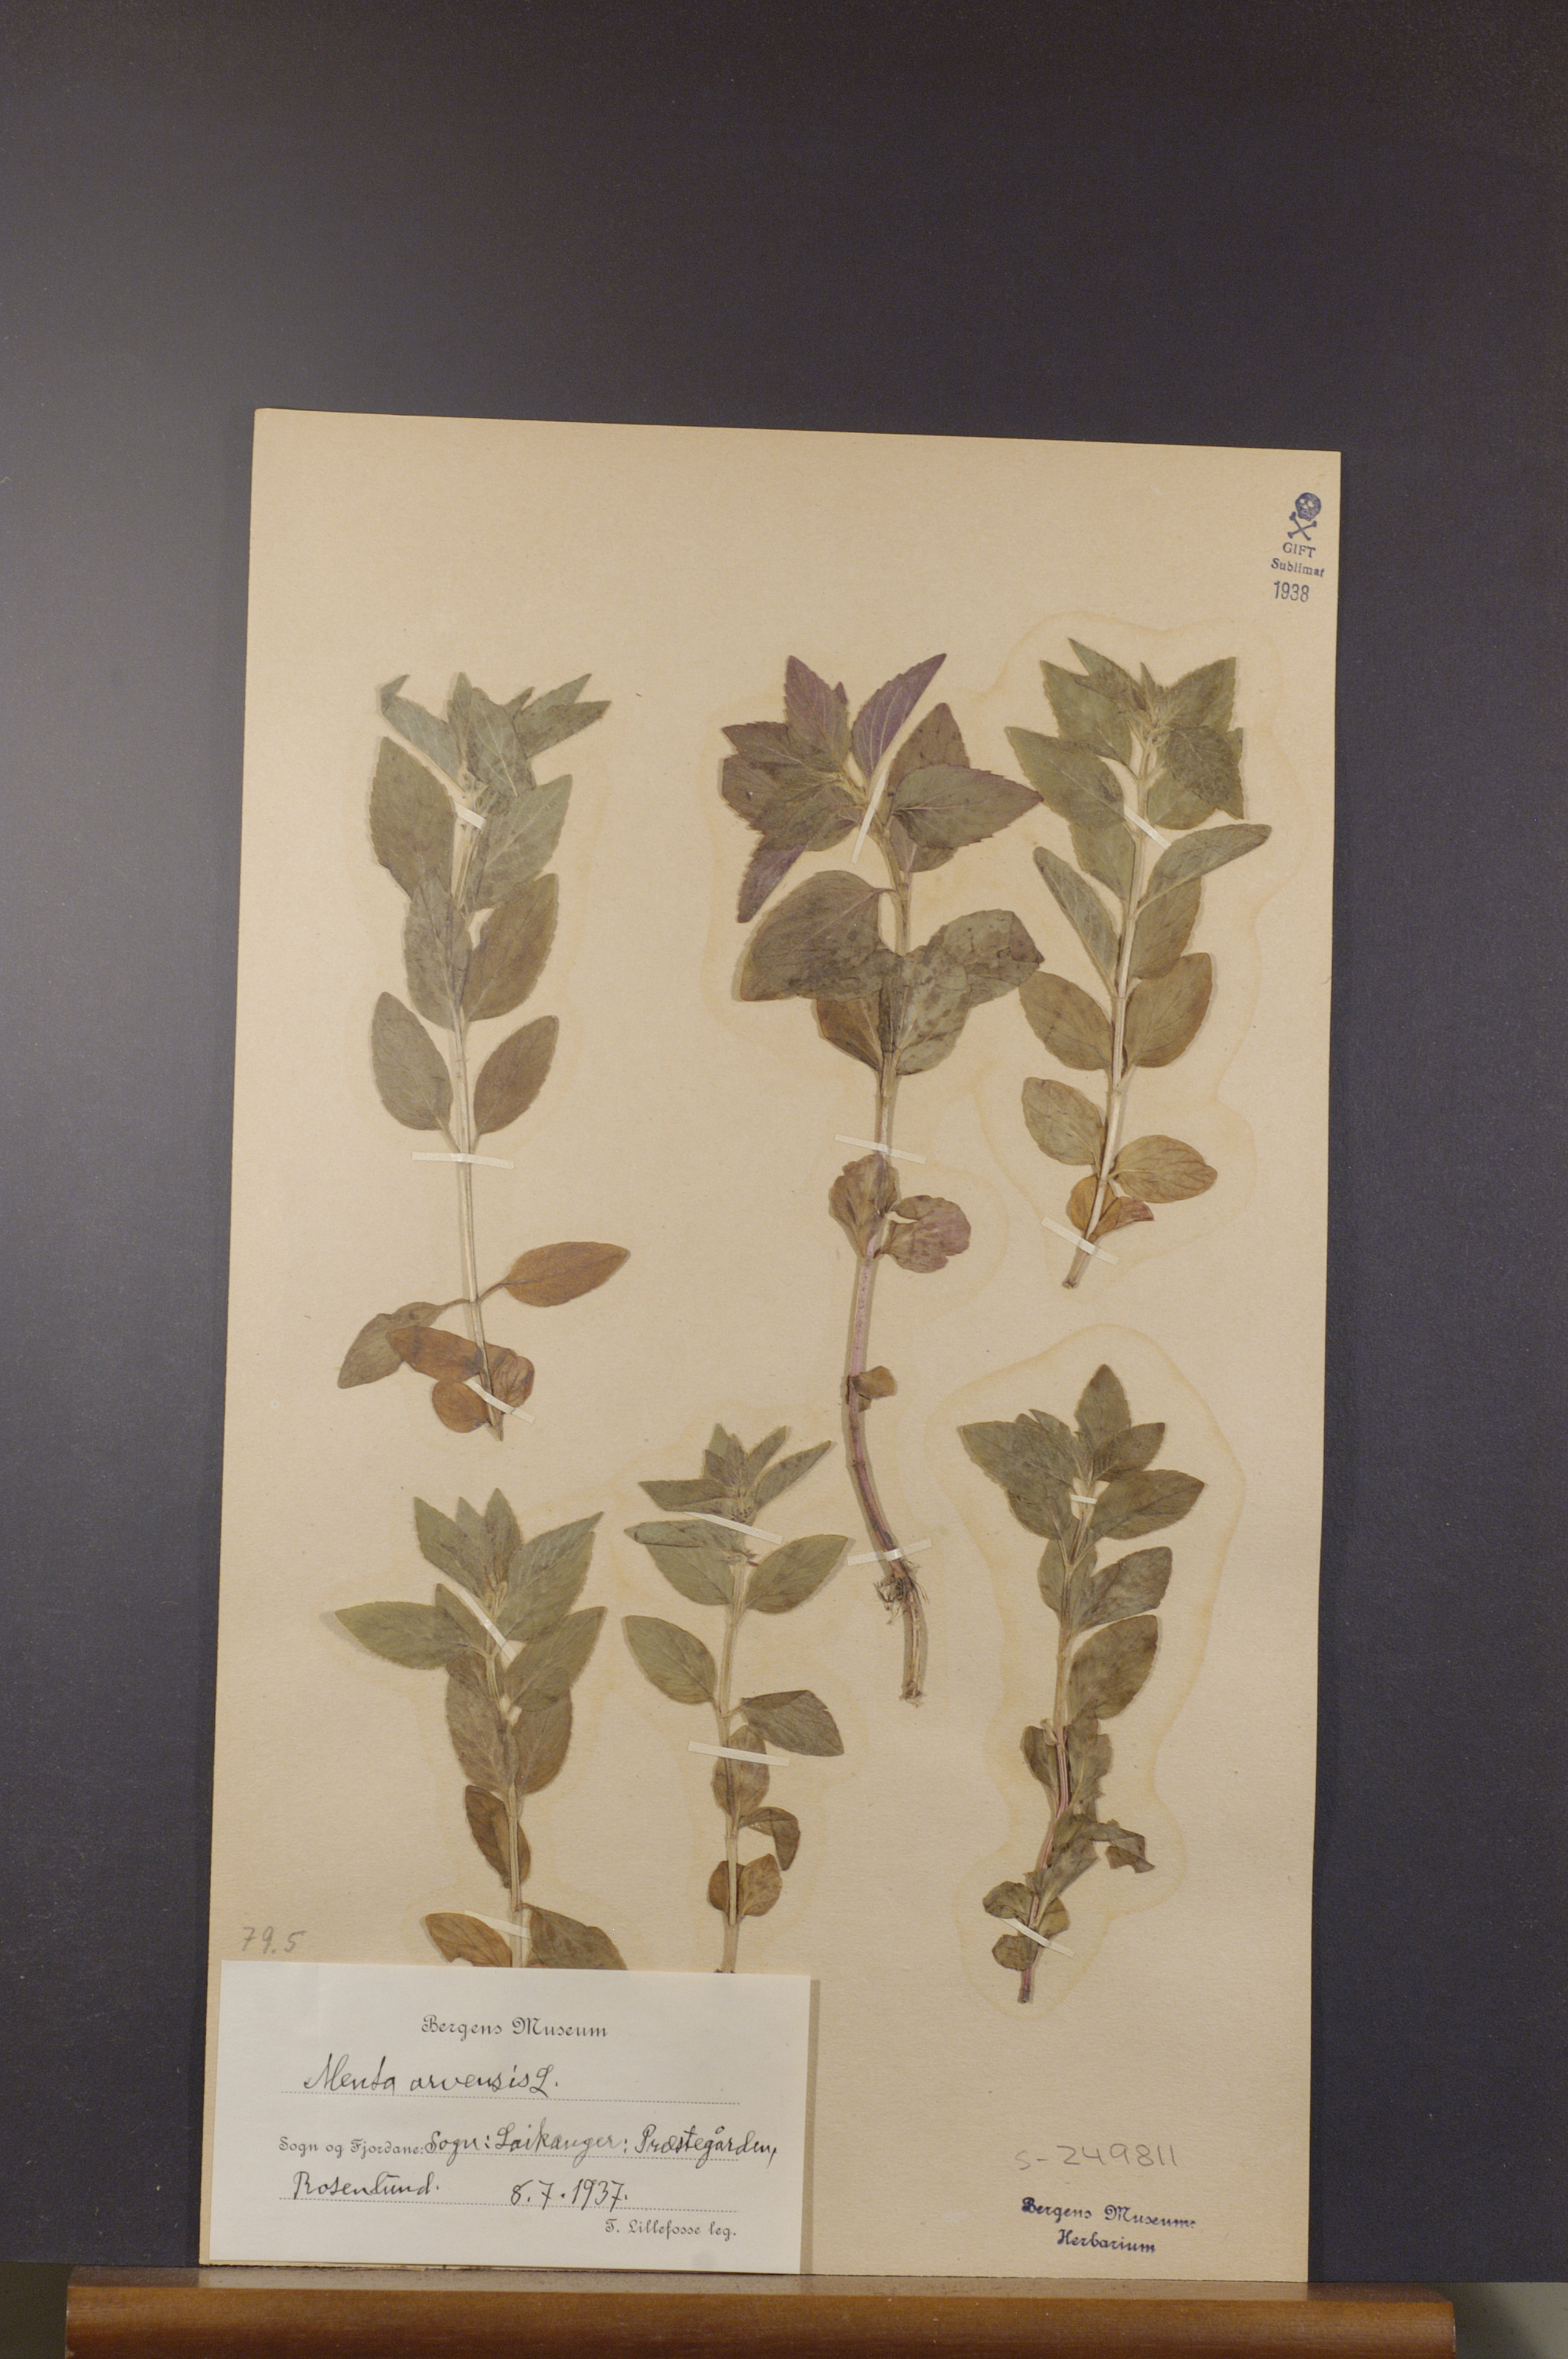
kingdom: Plantae
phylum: Tracheophyta
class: Magnoliopsida
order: Lamiales
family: Lamiaceae
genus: Mentha
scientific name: Mentha arvensis
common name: Corn mint
